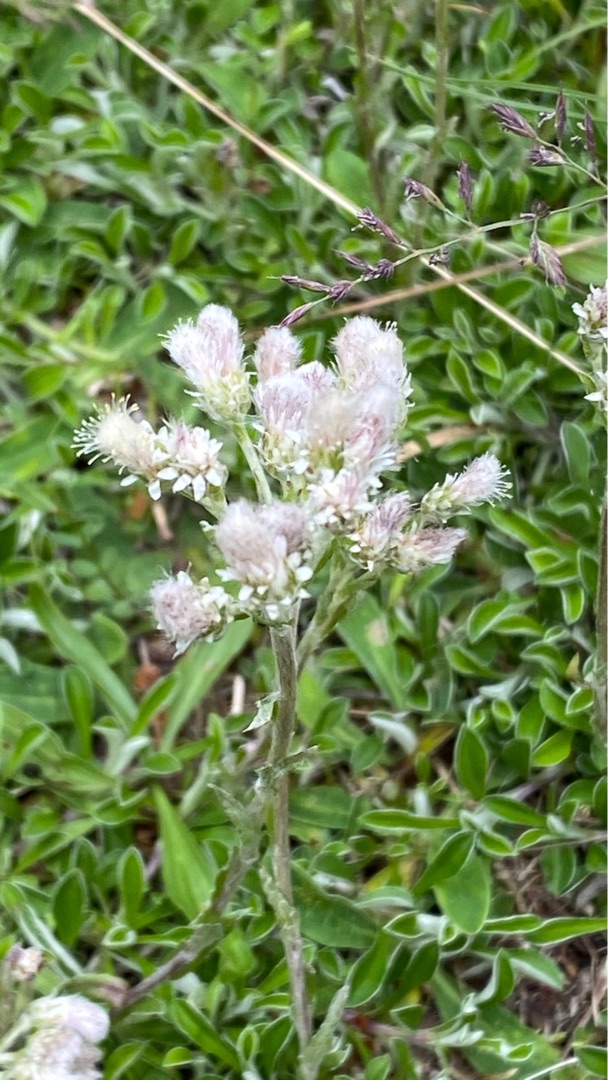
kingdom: Plantae
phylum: Tracheophyta
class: Magnoliopsida
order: Asterales
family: Asteraceae
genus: Antennaria
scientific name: Antennaria dioica
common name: Kattefod
